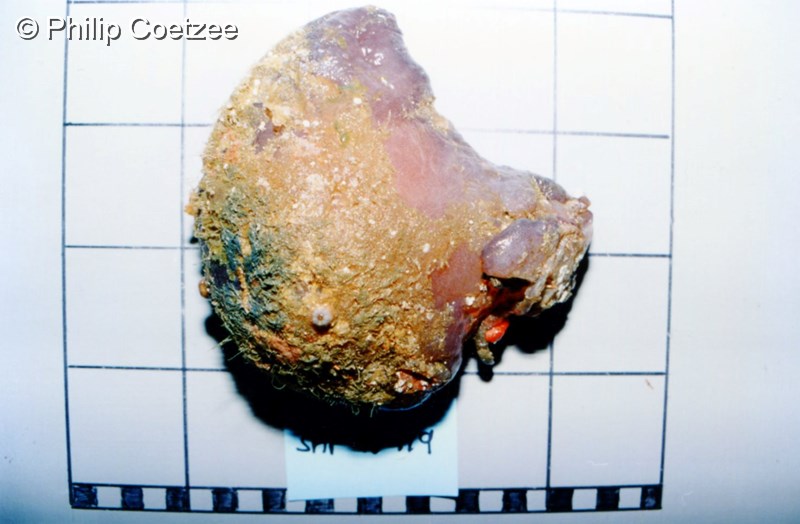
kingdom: Animalia
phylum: Chordata
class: Ascidiacea
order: Stolidobranchia
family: Pyuridae
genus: Pyura
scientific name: Pyura
